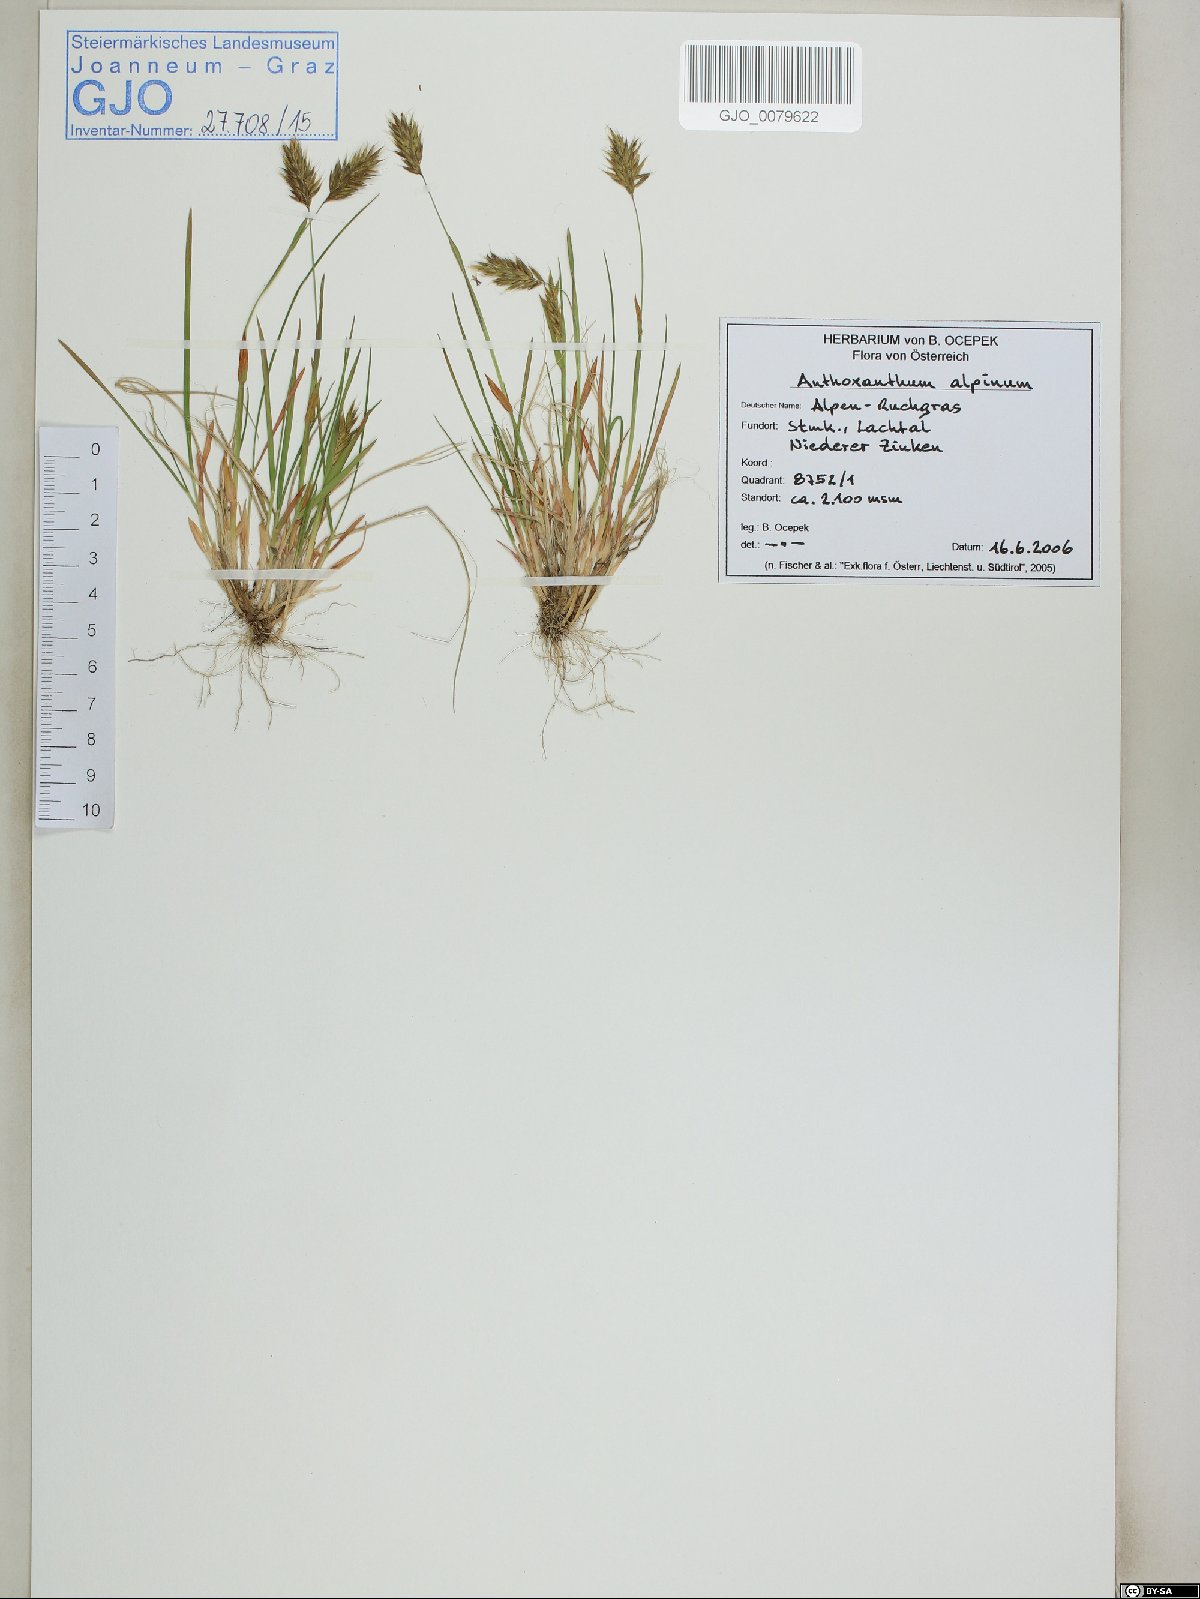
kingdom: Plantae
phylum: Tracheophyta
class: Liliopsida
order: Poales
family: Poaceae
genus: Anthoxanthum
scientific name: Anthoxanthum nipponicum
